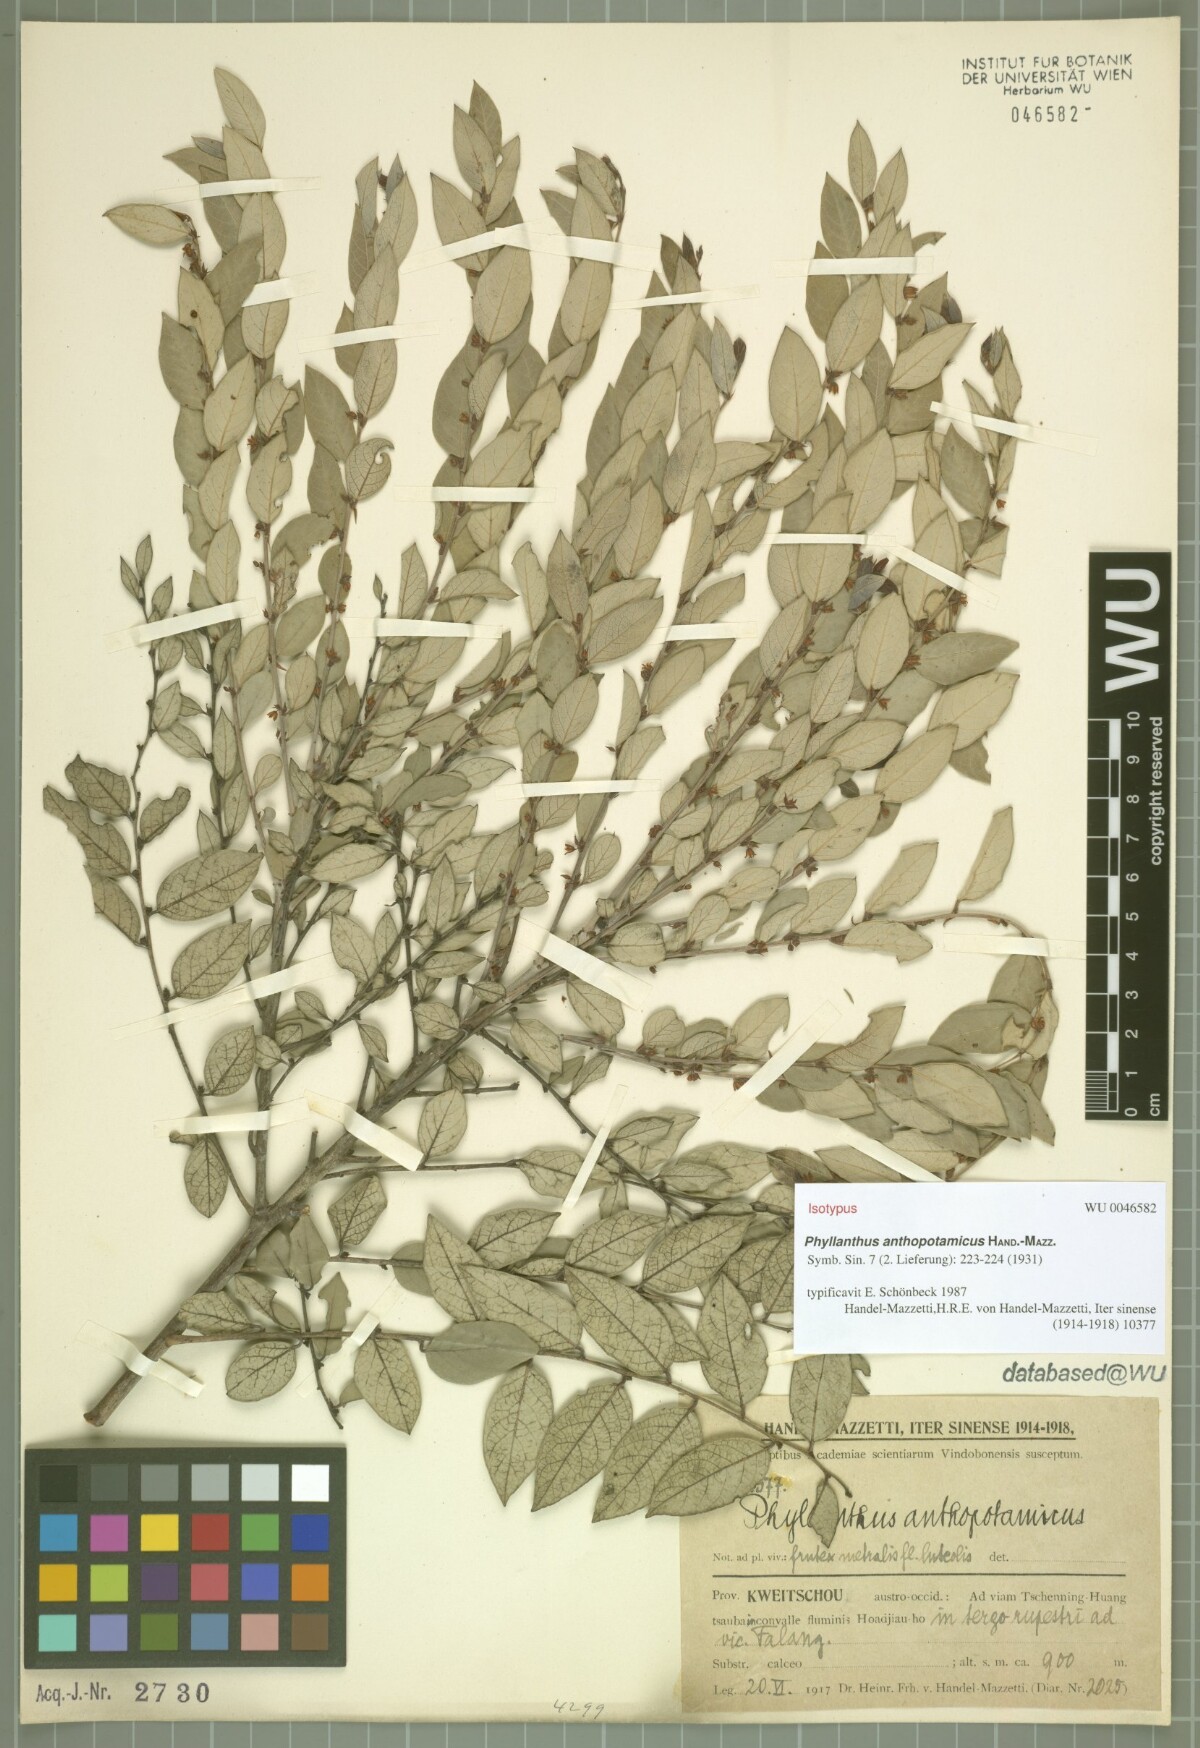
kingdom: Plantae
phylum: Tracheophyta
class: Magnoliopsida
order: Malpighiales
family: Phyllanthaceae
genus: Phyllanthus
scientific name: Phyllanthus anthopotamicus
